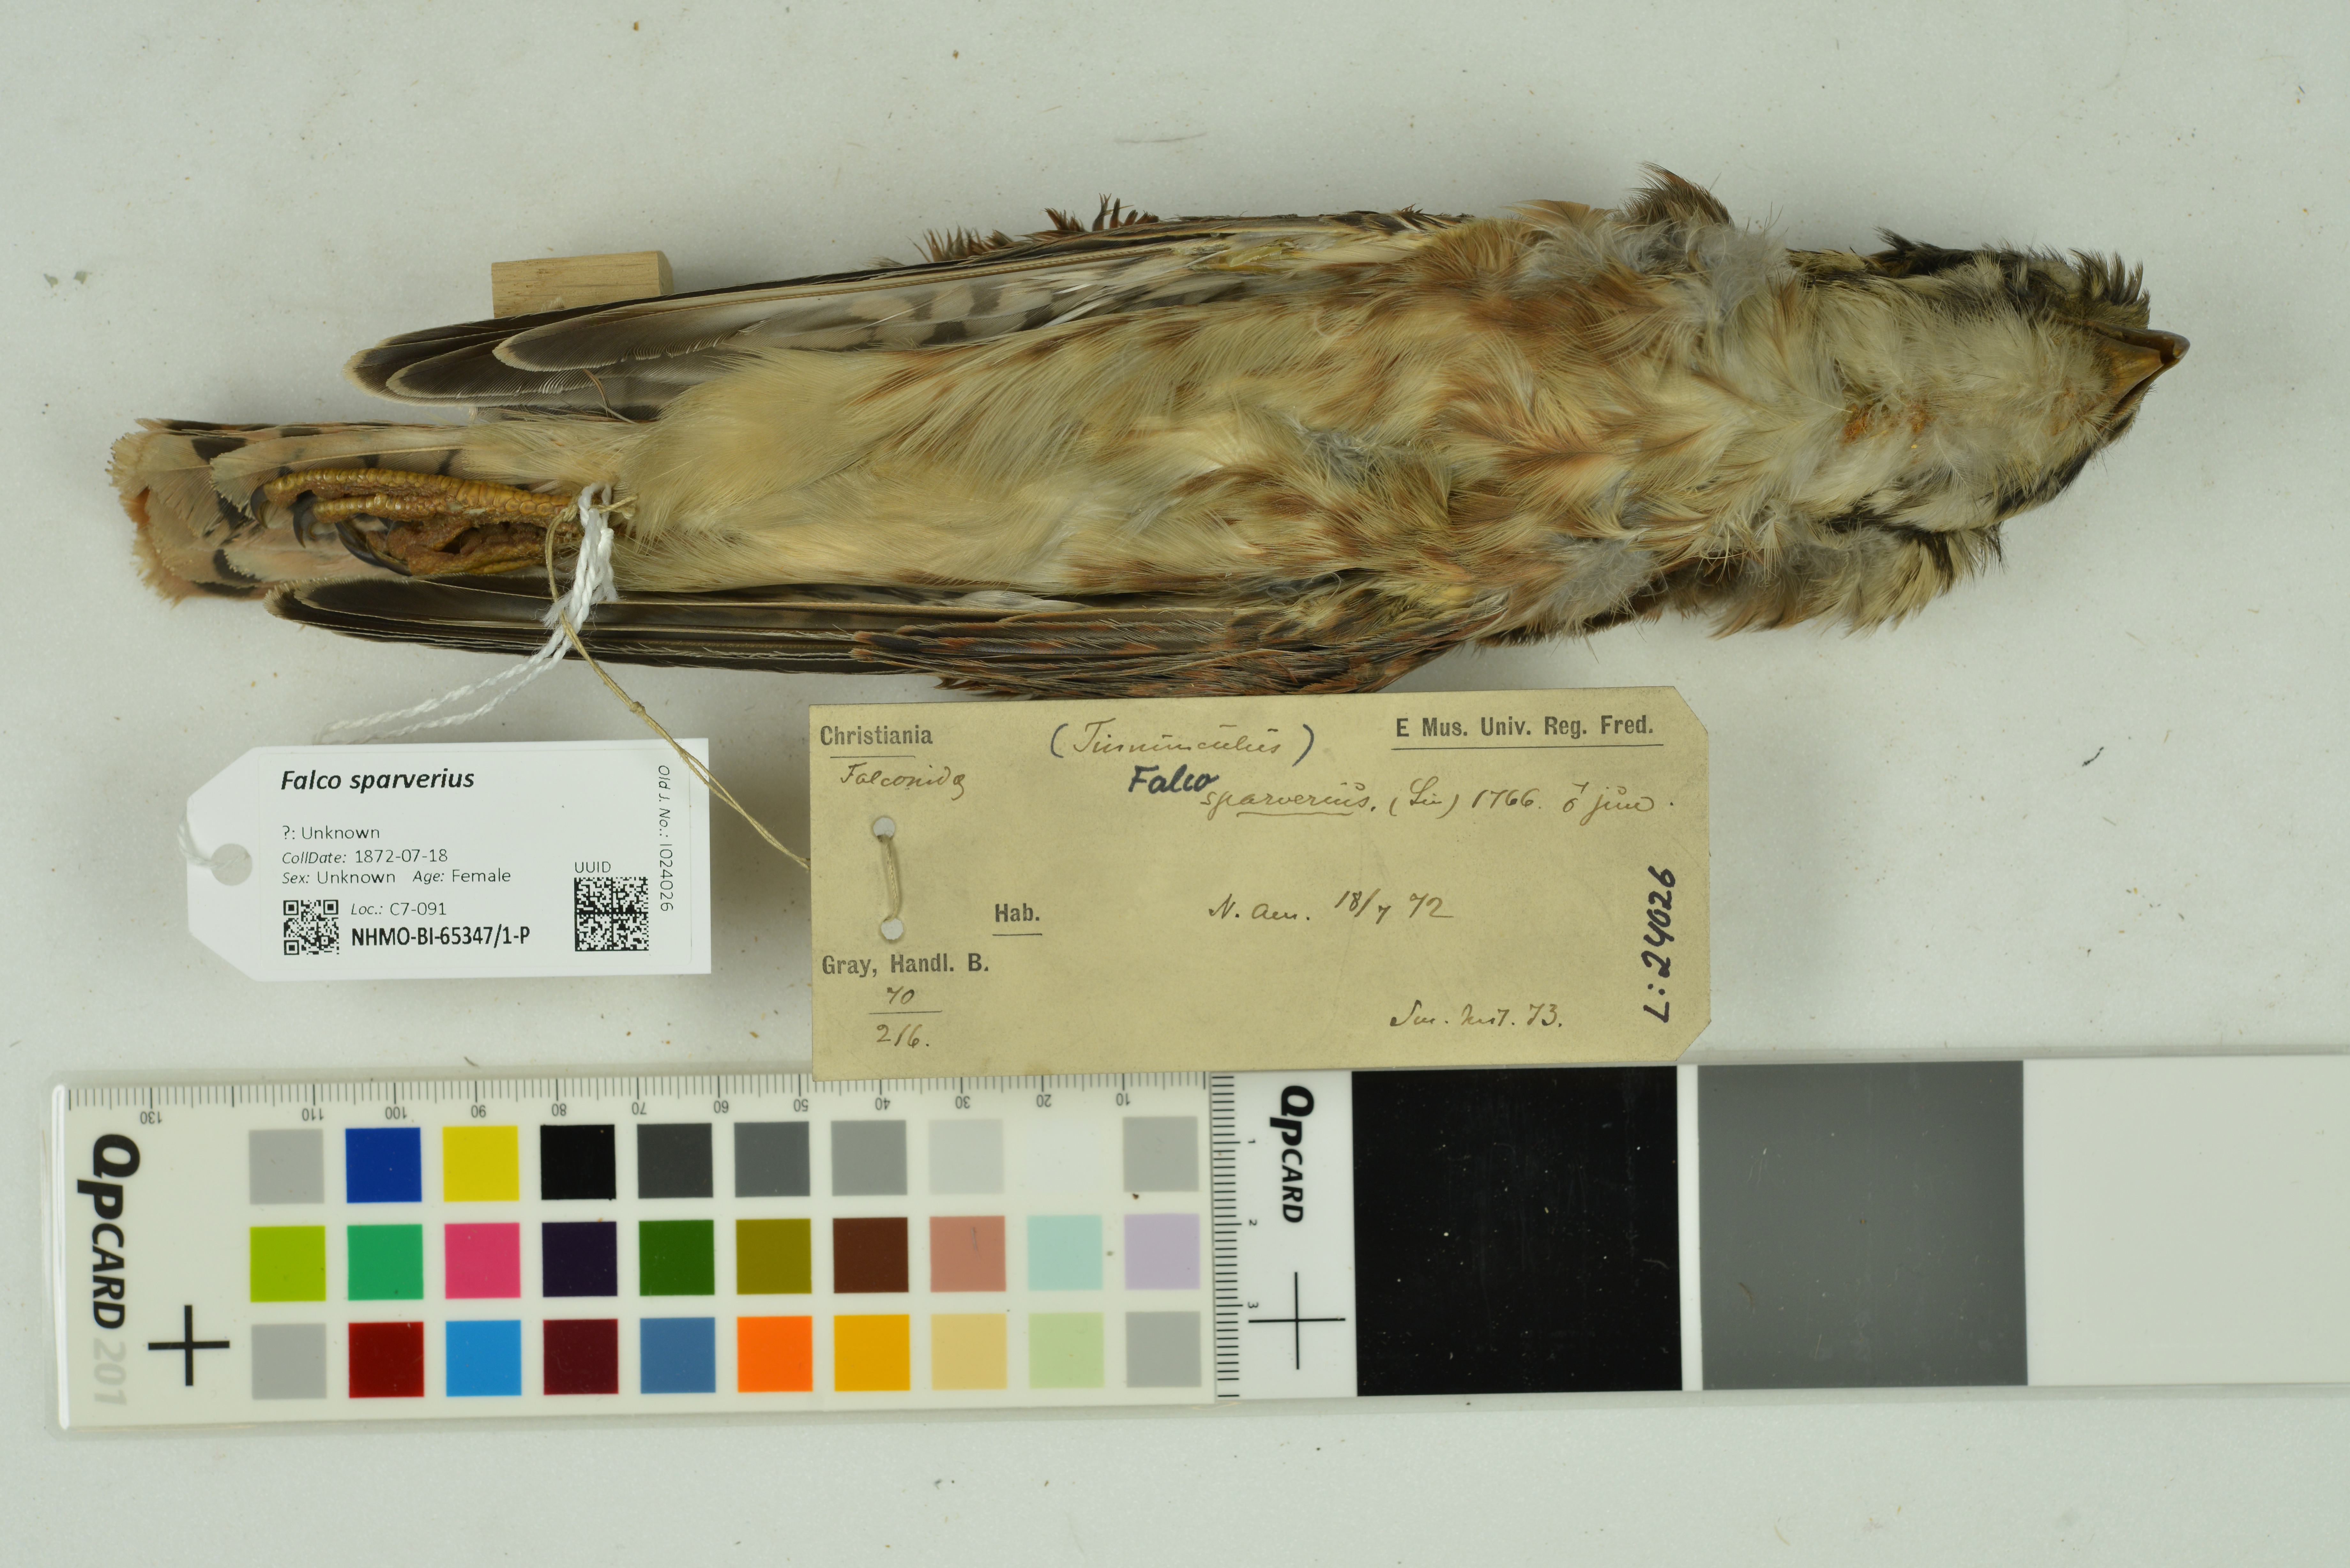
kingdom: Animalia
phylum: Chordata
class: Aves
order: Falconiformes
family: Falconidae
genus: Falco
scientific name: Falco sparverius
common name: American kestrel
